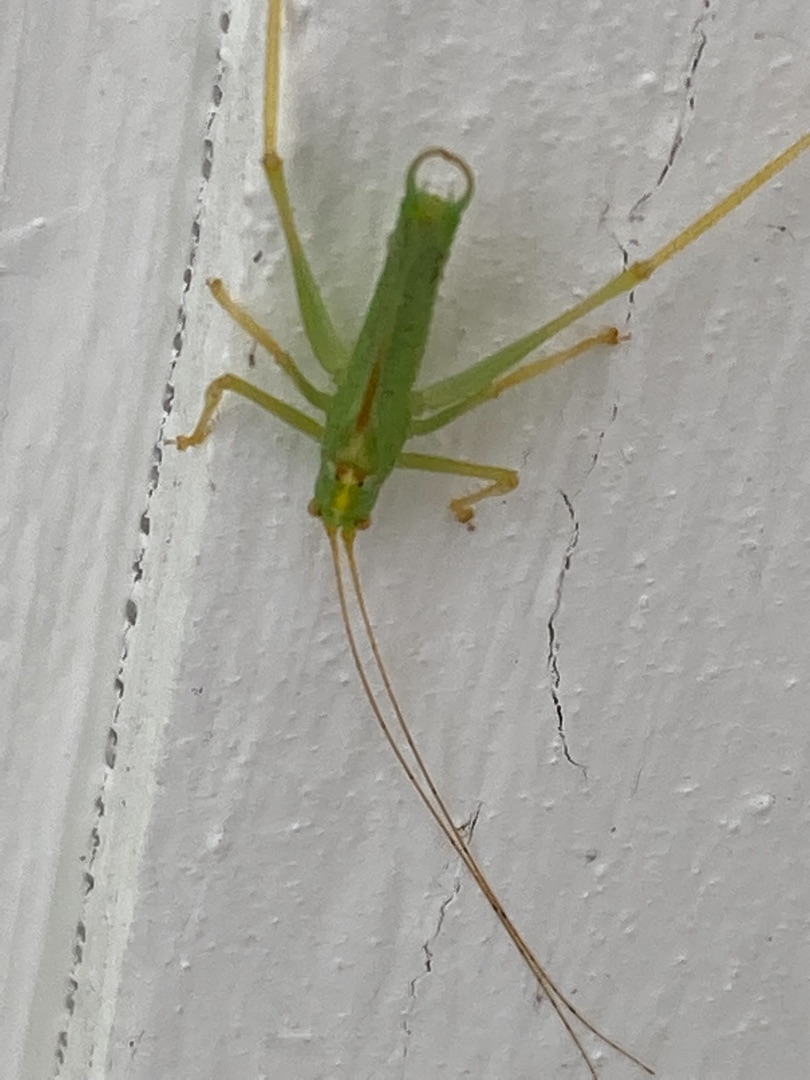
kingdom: Animalia
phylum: Arthropoda
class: Insecta
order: Orthoptera
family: Tettigoniidae
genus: Meconema
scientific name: Meconema thalassinum
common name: Egegræshoppe
